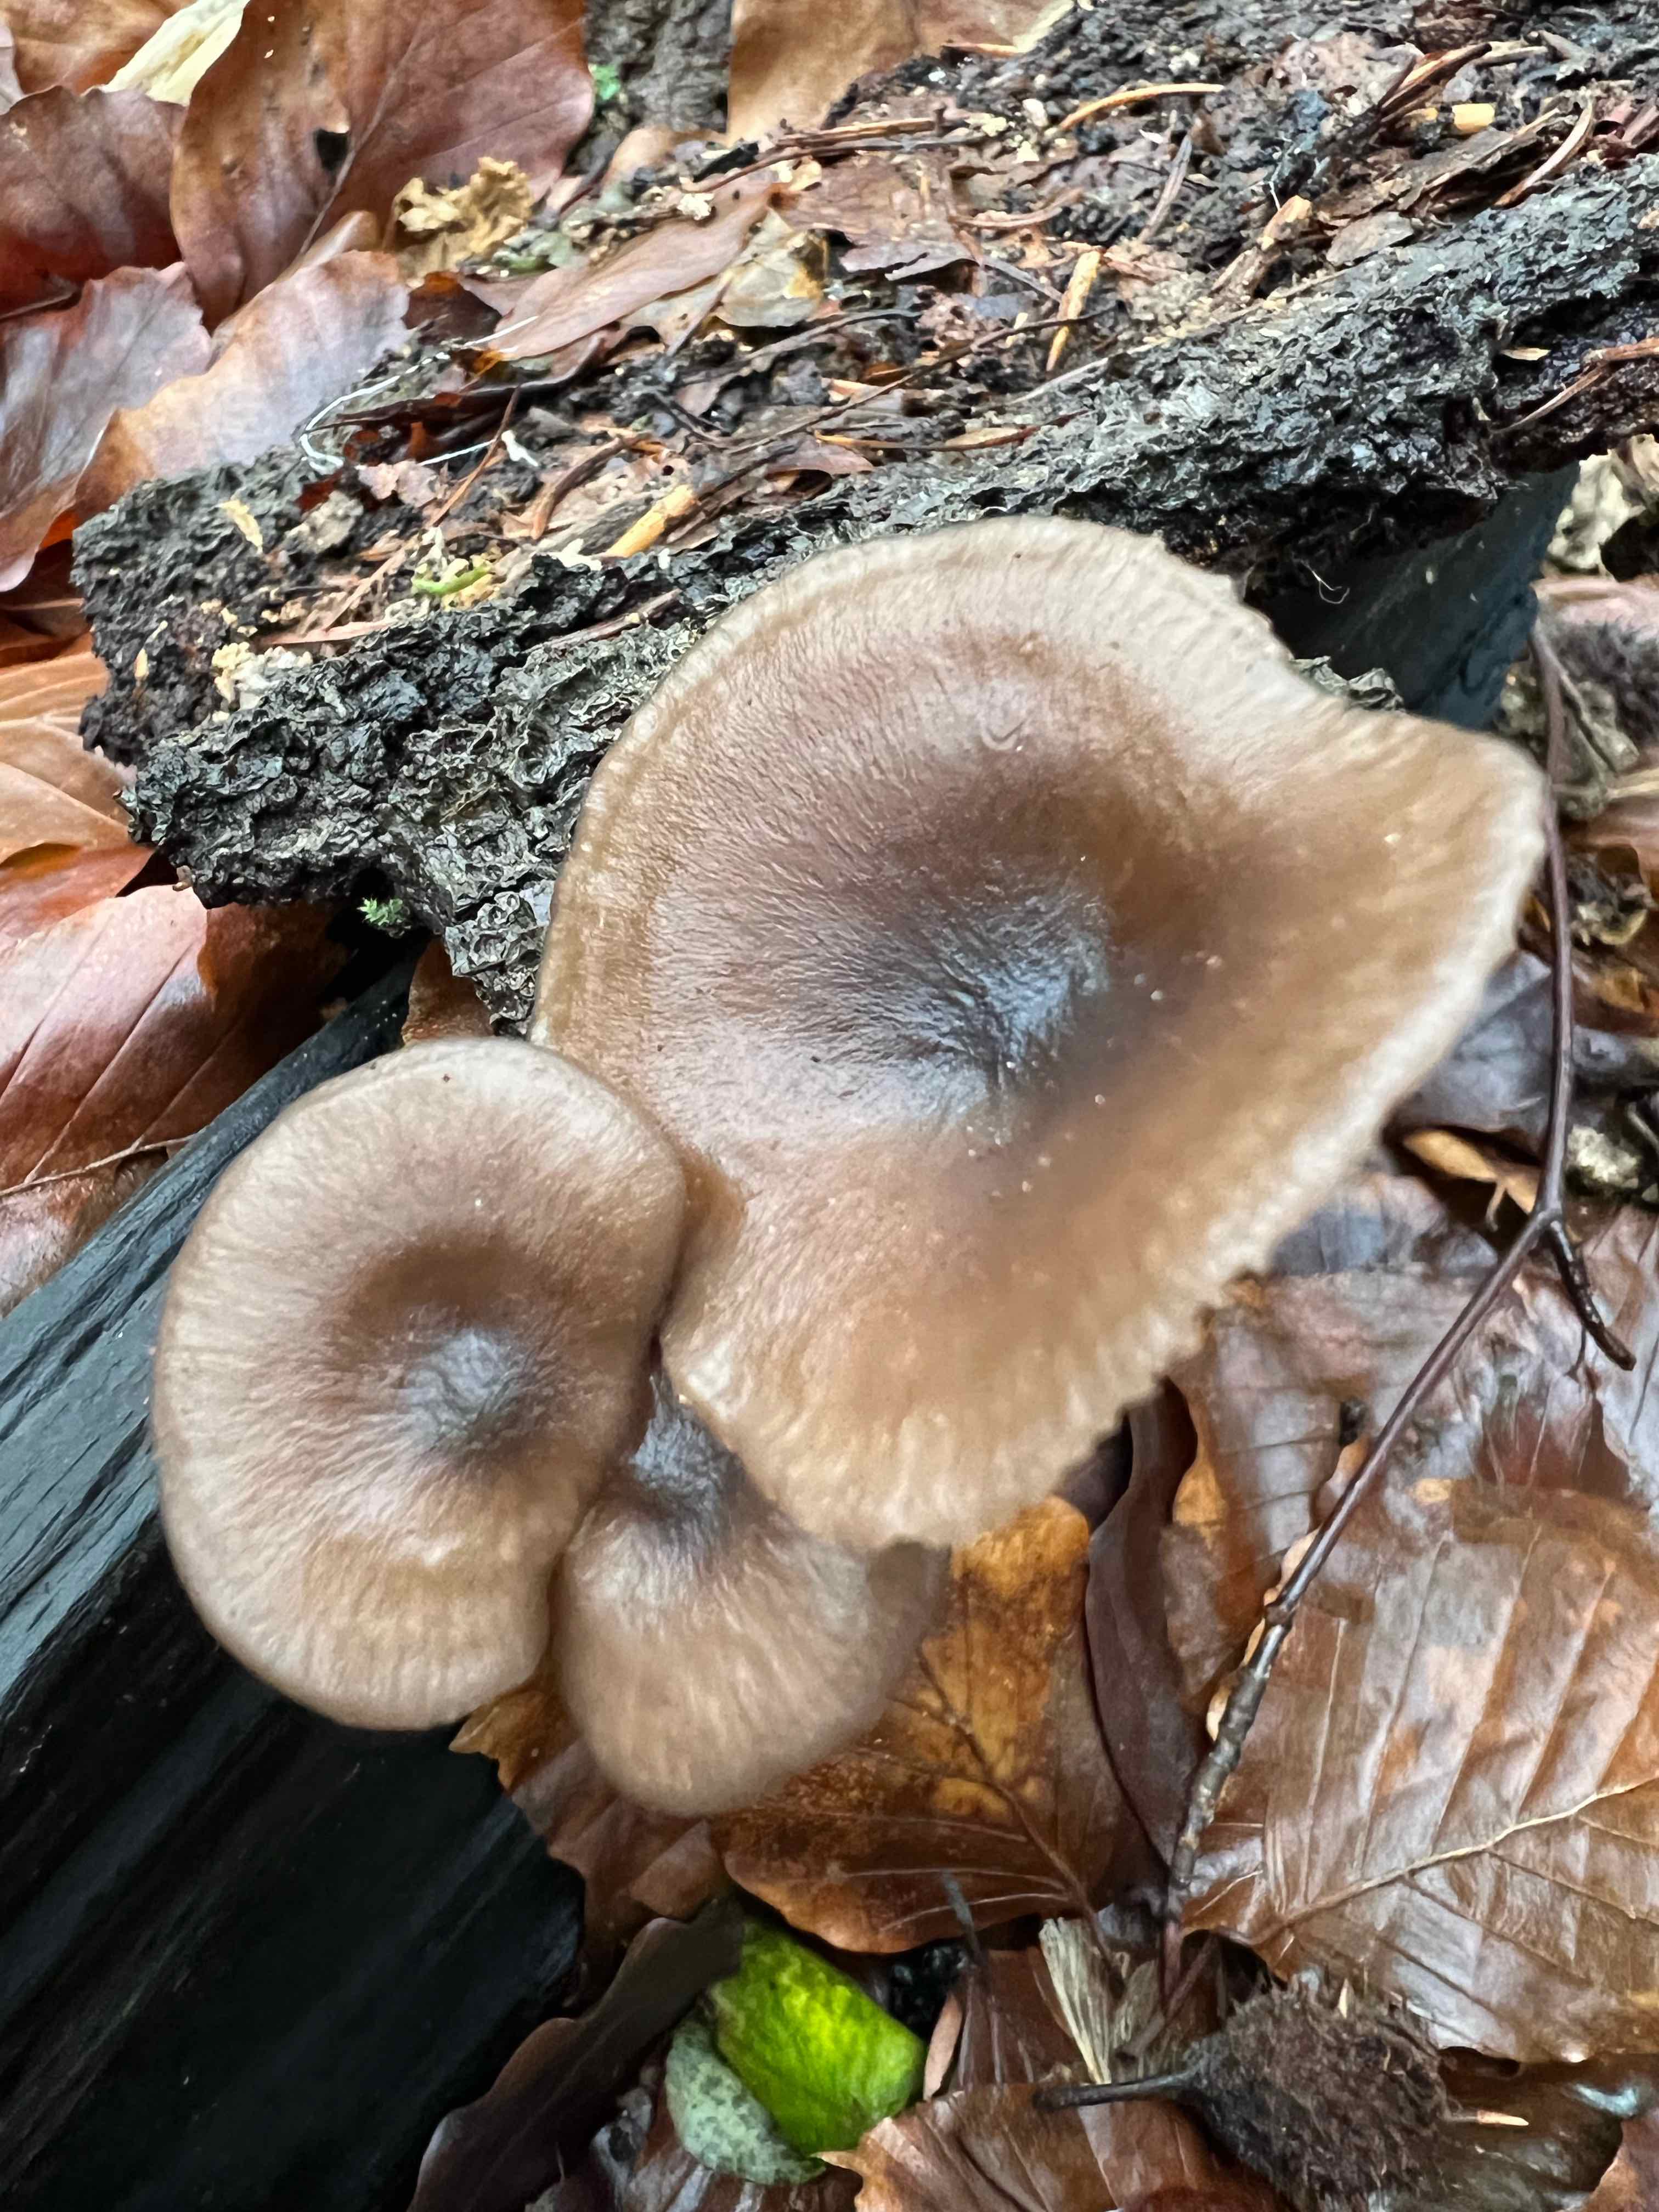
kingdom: Fungi
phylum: Basidiomycota
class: Agaricomycetes
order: Agaricales
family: Pseudoclitocybaceae
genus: Pseudoclitocybe
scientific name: Pseudoclitocybe cyathiformis
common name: almindelig bægertragthat
